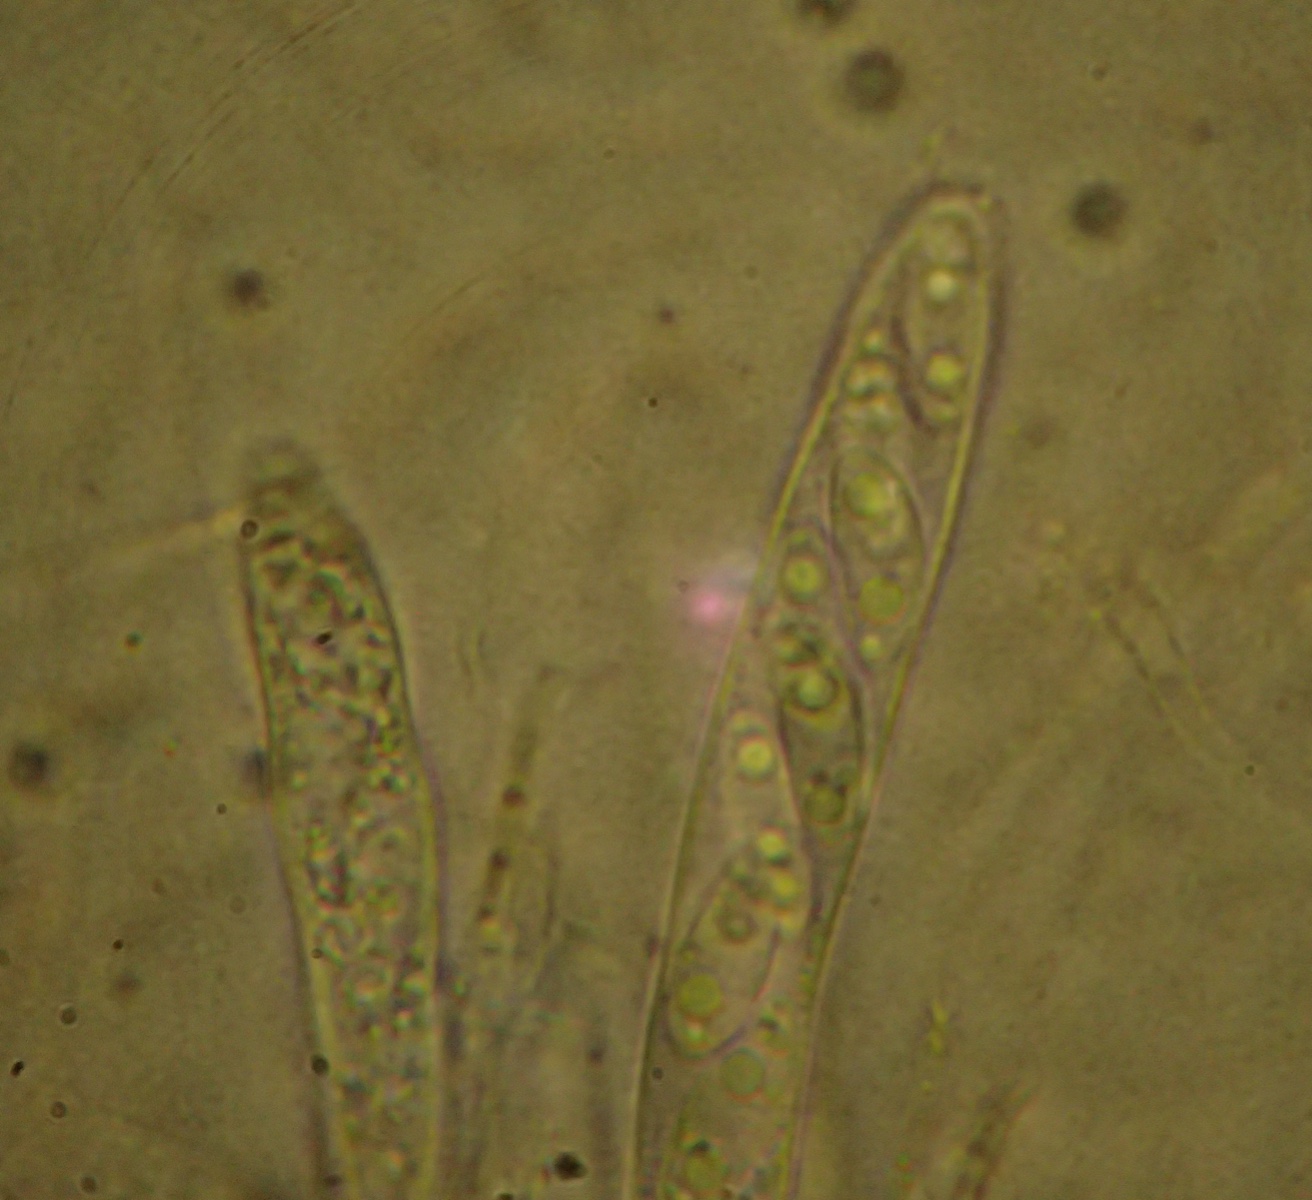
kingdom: Fungi
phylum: Ascomycota
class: Leotiomycetes
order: Helotiales
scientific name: Helotiales
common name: stilkskiveordenen
